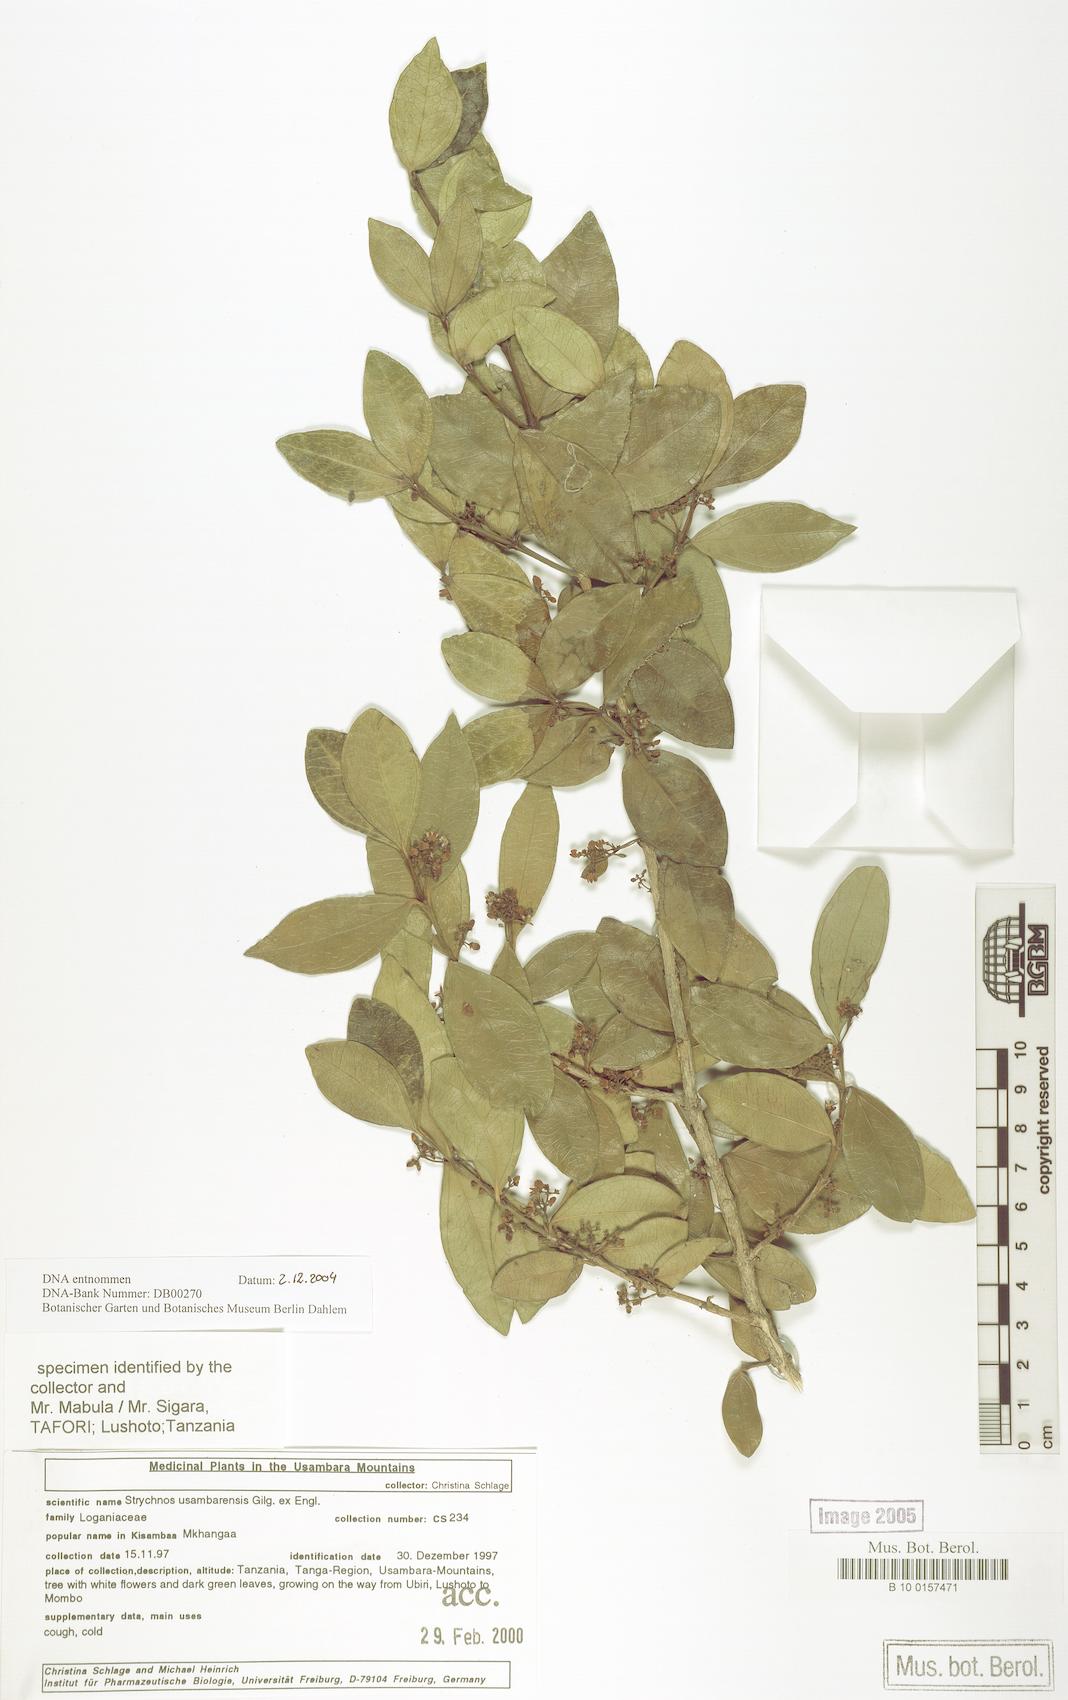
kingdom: Plantae
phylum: Tracheophyta
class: Magnoliopsida
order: Gentianales
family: Loganiaceae
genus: Strychnos
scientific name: Strychnos usambarensis
